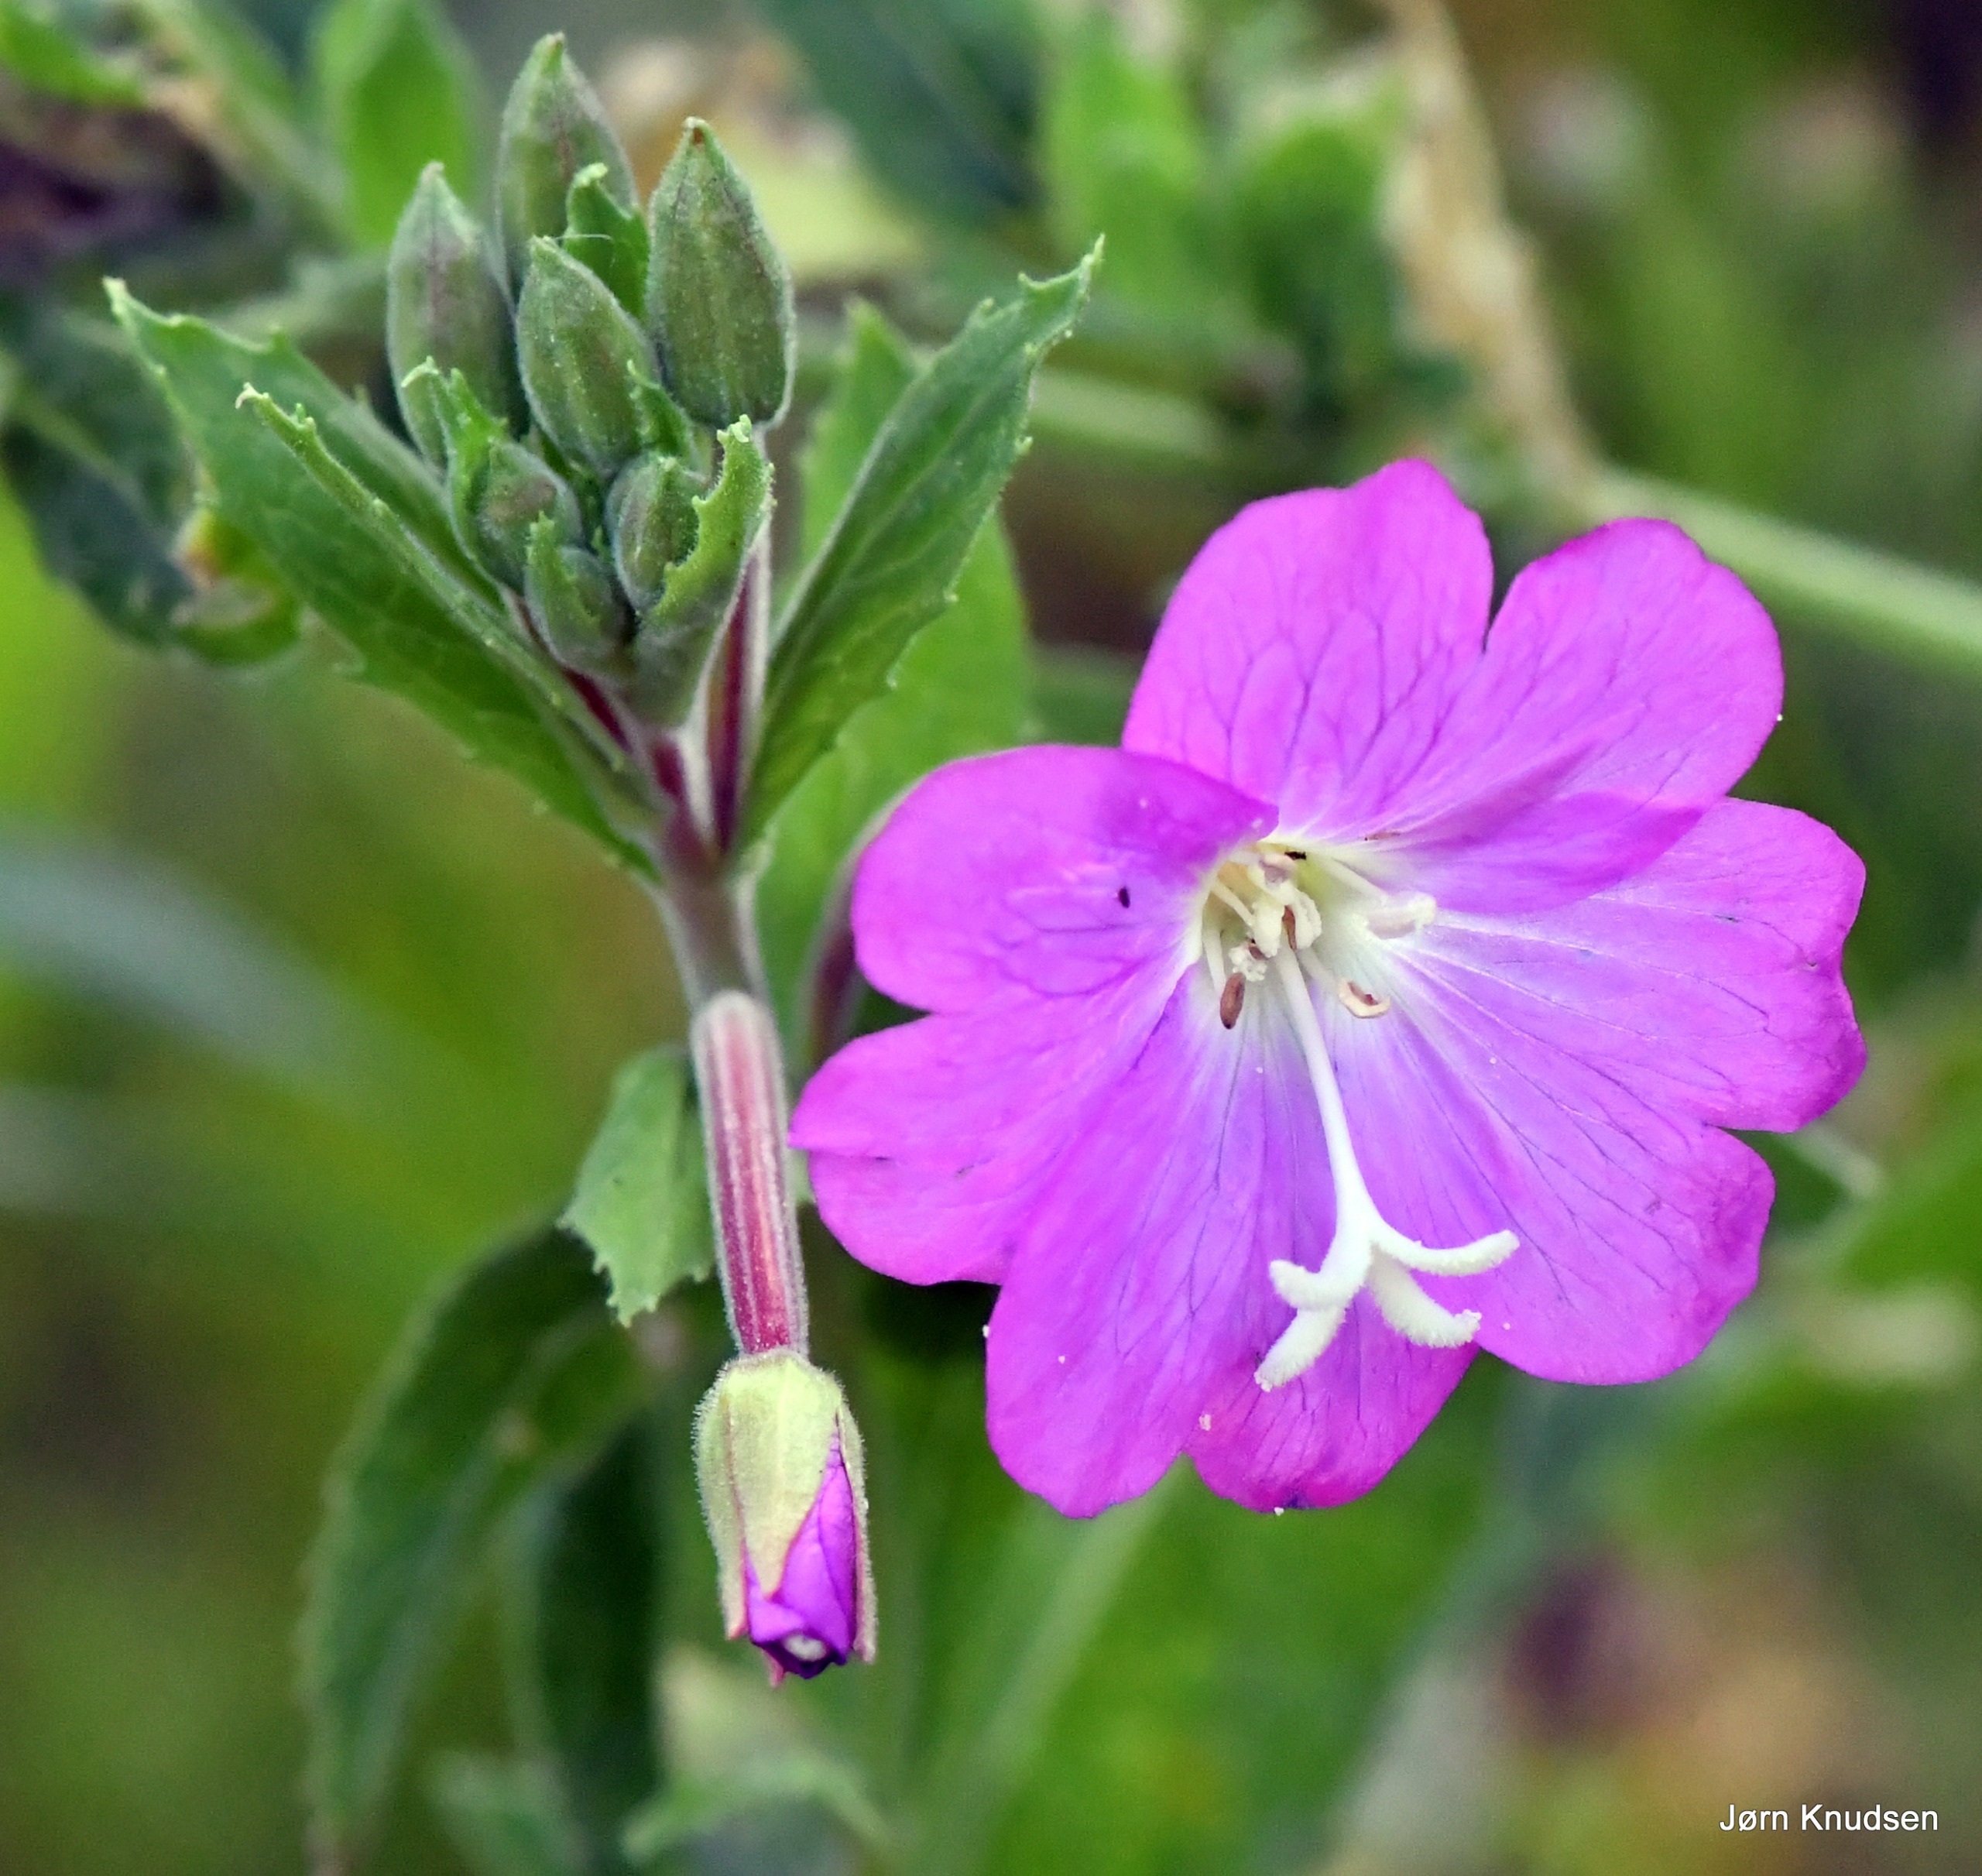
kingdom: Plantae
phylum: Tracheophyta
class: Magnoliopsida
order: Myrtales
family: Onagraceae
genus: Epilobium
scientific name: Epilobium hirsutum
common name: Lådden dueurt
